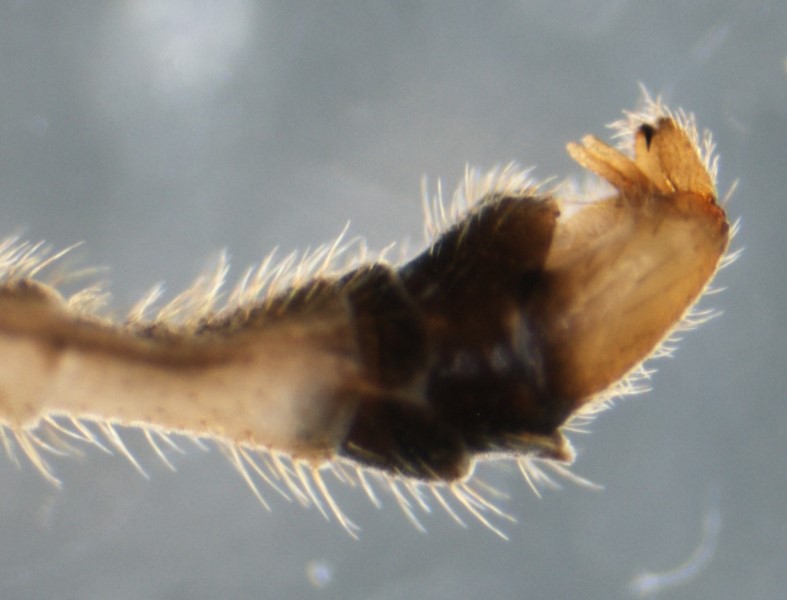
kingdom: Animalia
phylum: Arthropoda
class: Insecta
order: Diptera
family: Limoniidae
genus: Austrolimnophila
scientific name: Austrolimnophila ochracea
